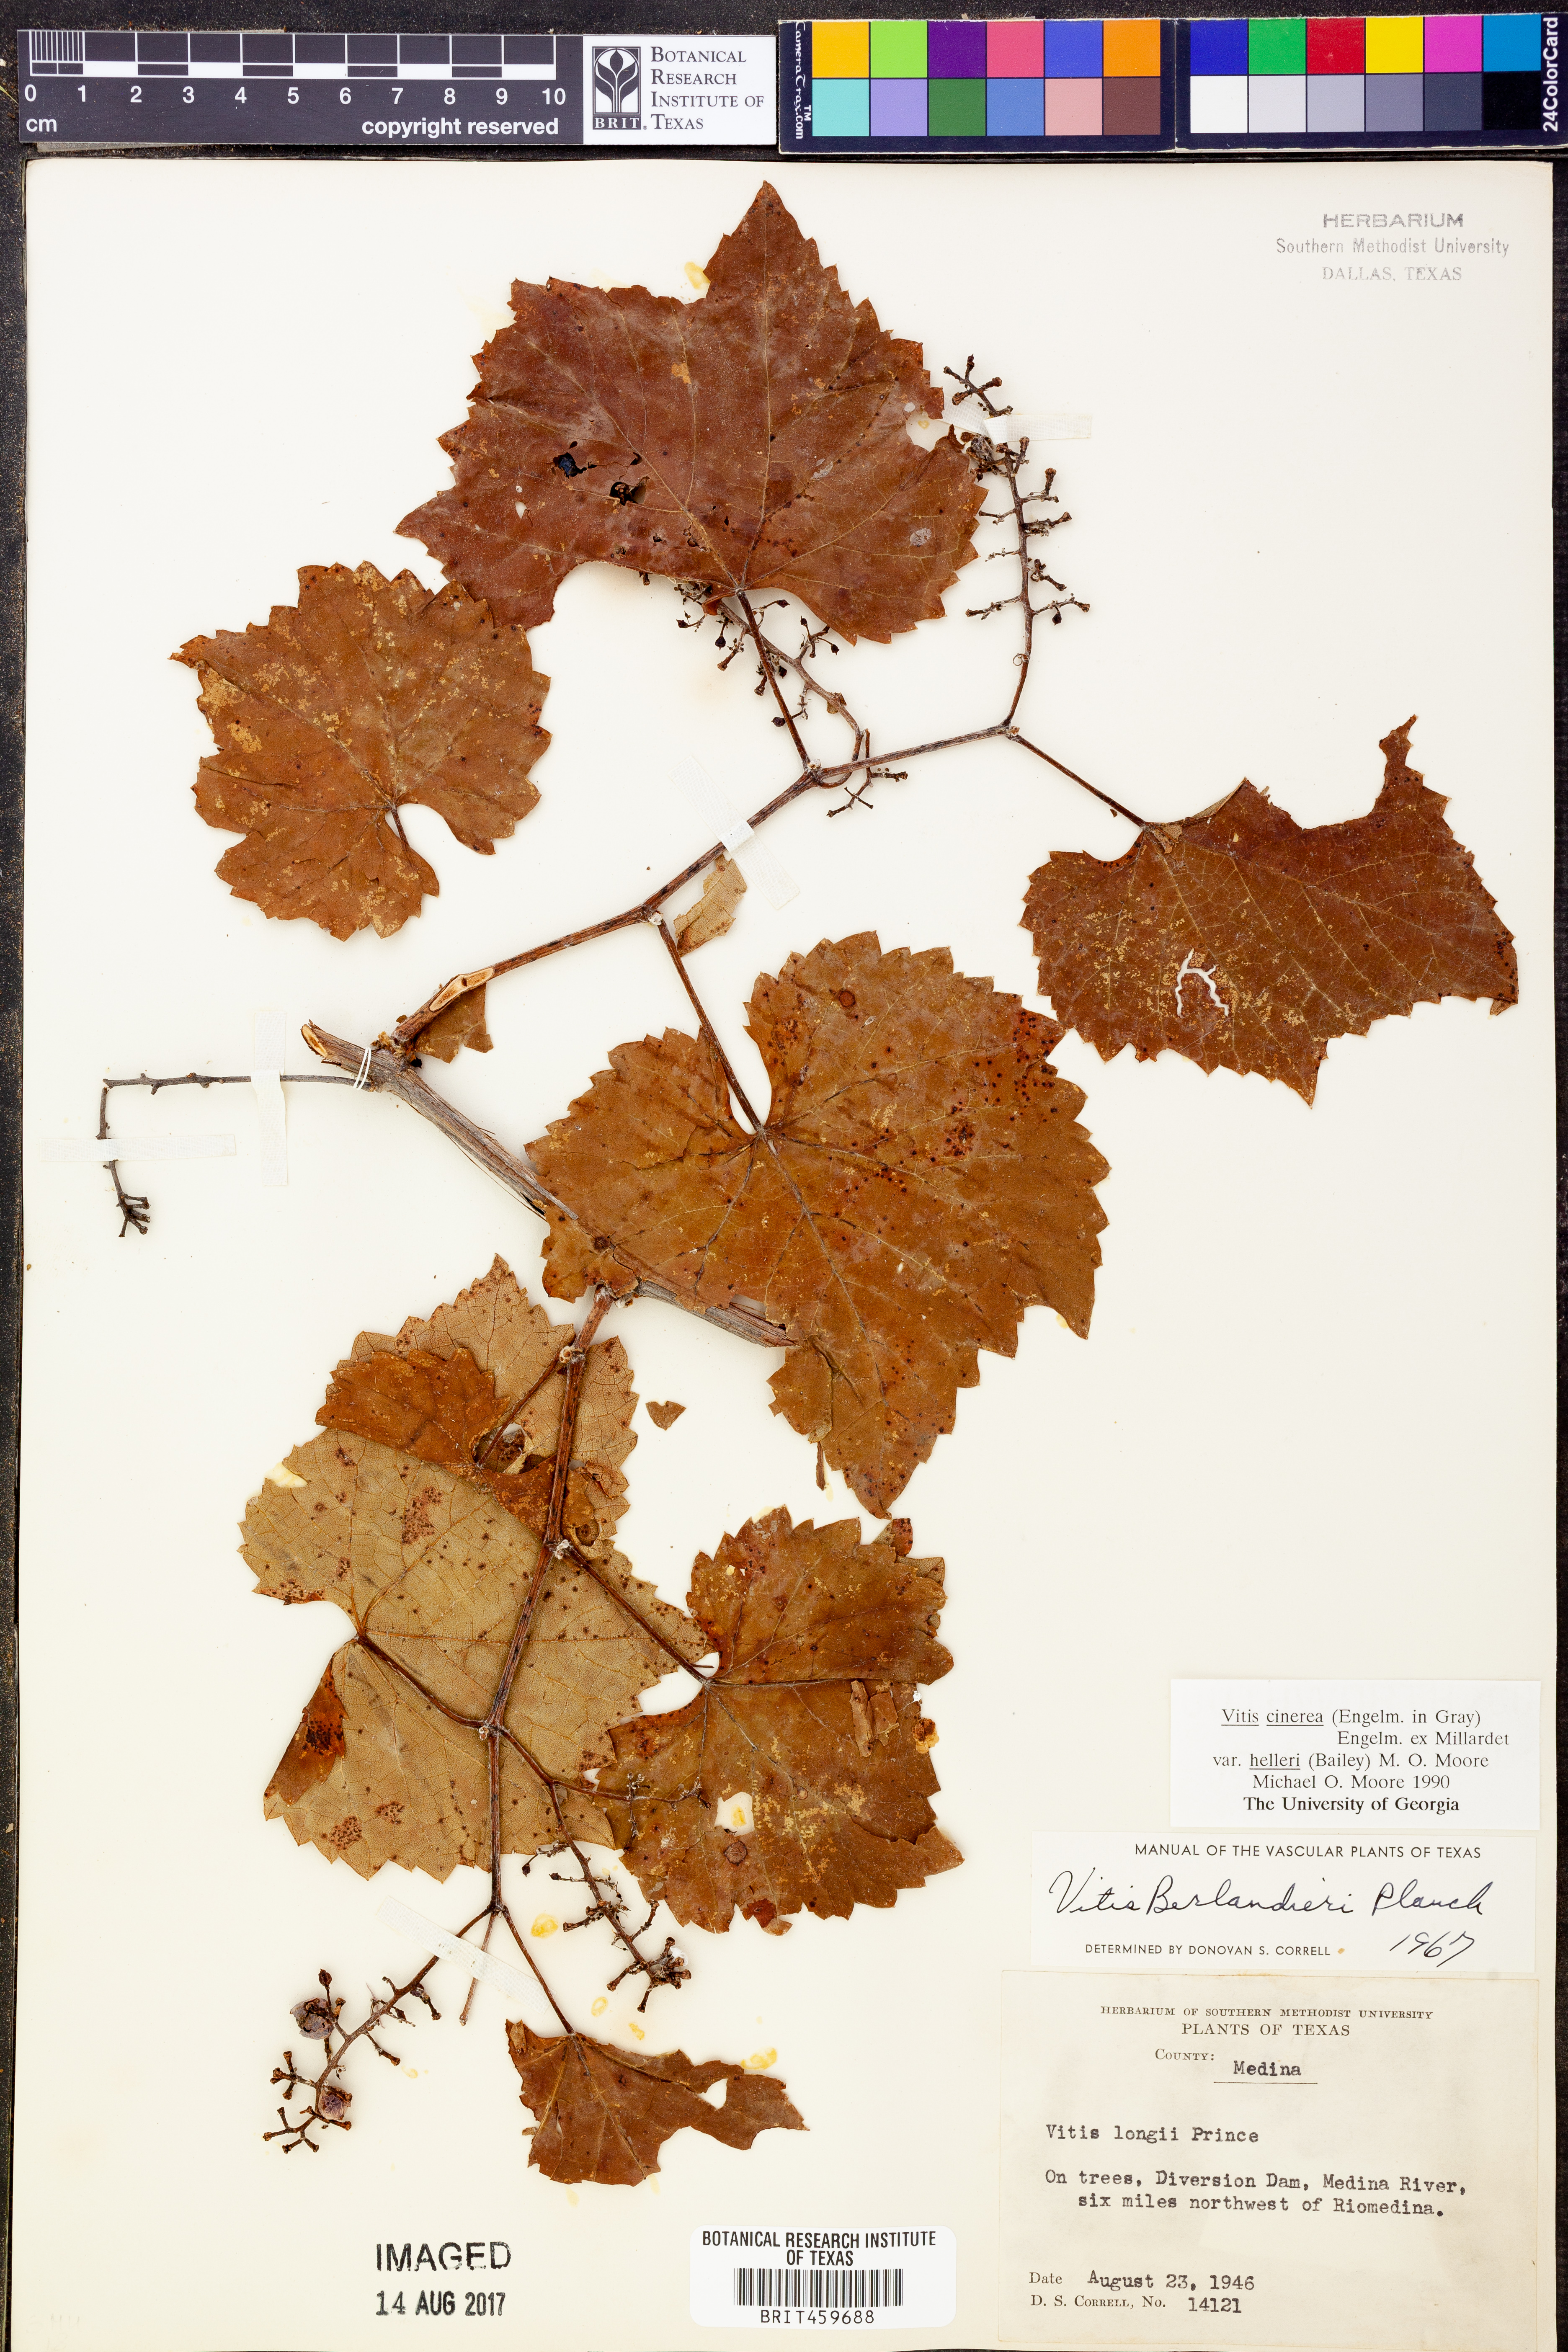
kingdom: Plantae
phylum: Tracheophyta
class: Magnoliopsida
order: Vitales
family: Vitaceae
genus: Vitis
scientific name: Vitis cinerea
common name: Ashy grape
